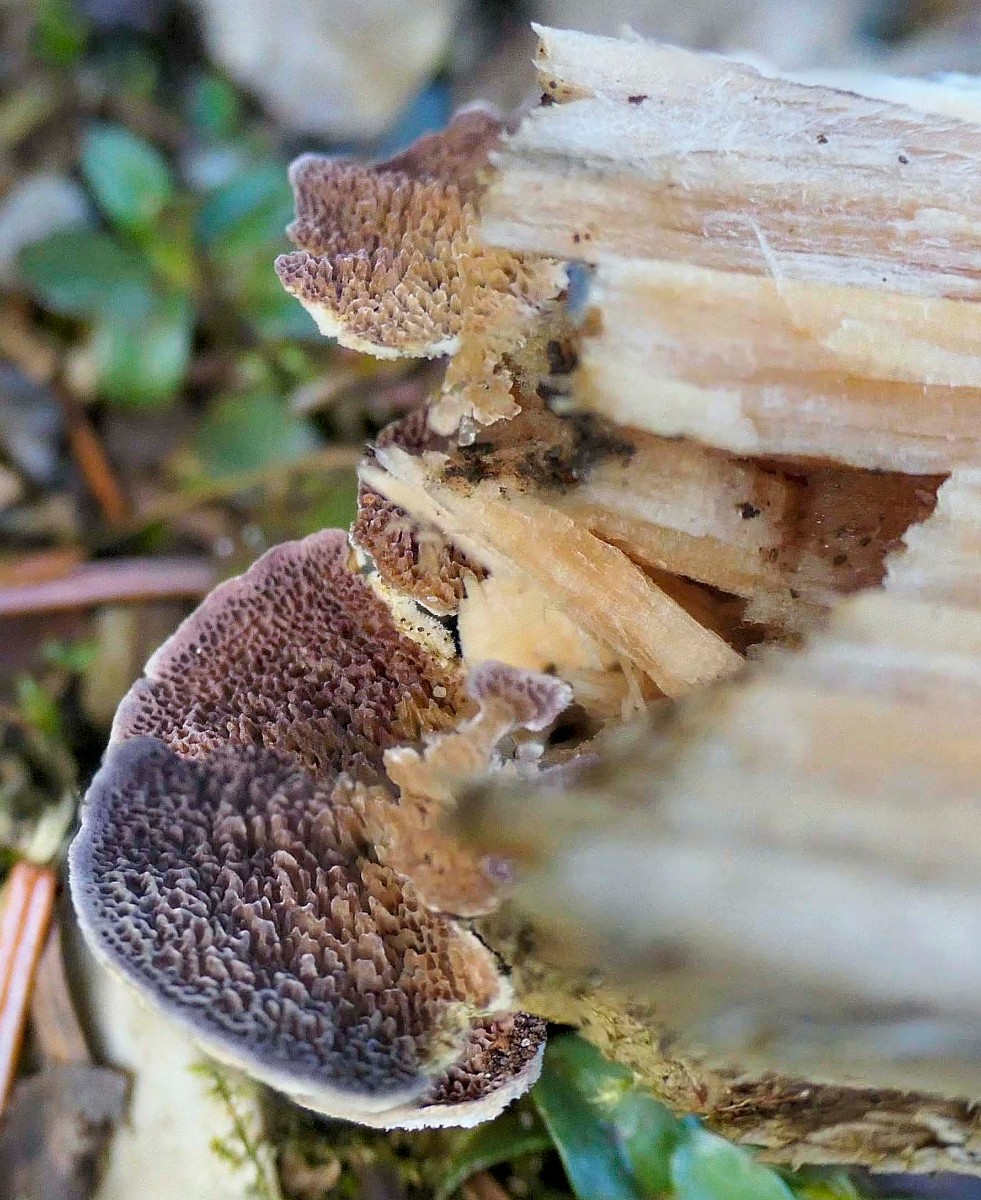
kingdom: Fungi
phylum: Basidiomycota
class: Agaricomycetes
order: Hymenochaetales
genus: Trichaptum
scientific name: Trichaptum fuscoviolaceum
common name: tandet violporesvamp
